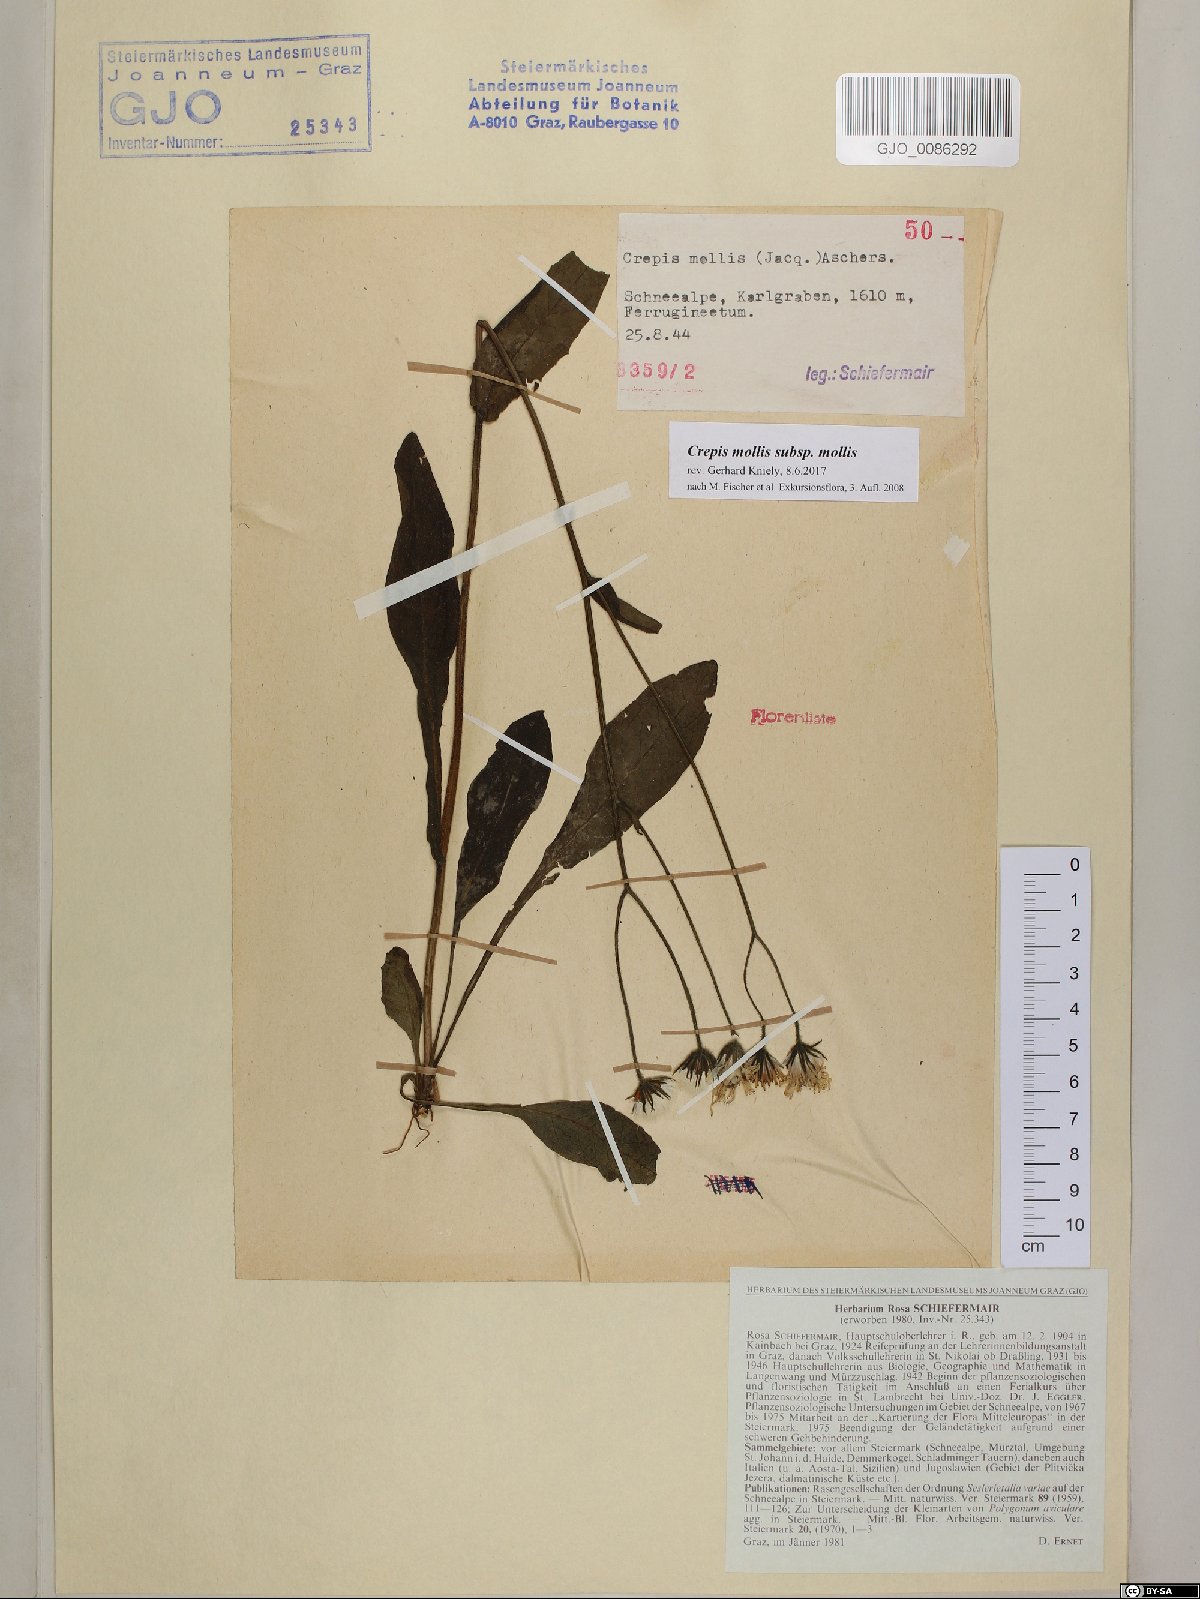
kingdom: Plantae
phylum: Tracheophyta
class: Magnoliopsida
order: Asterales
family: Asteraceae
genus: Crepis
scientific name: Crepis mollis
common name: Northern hawk's-beard
